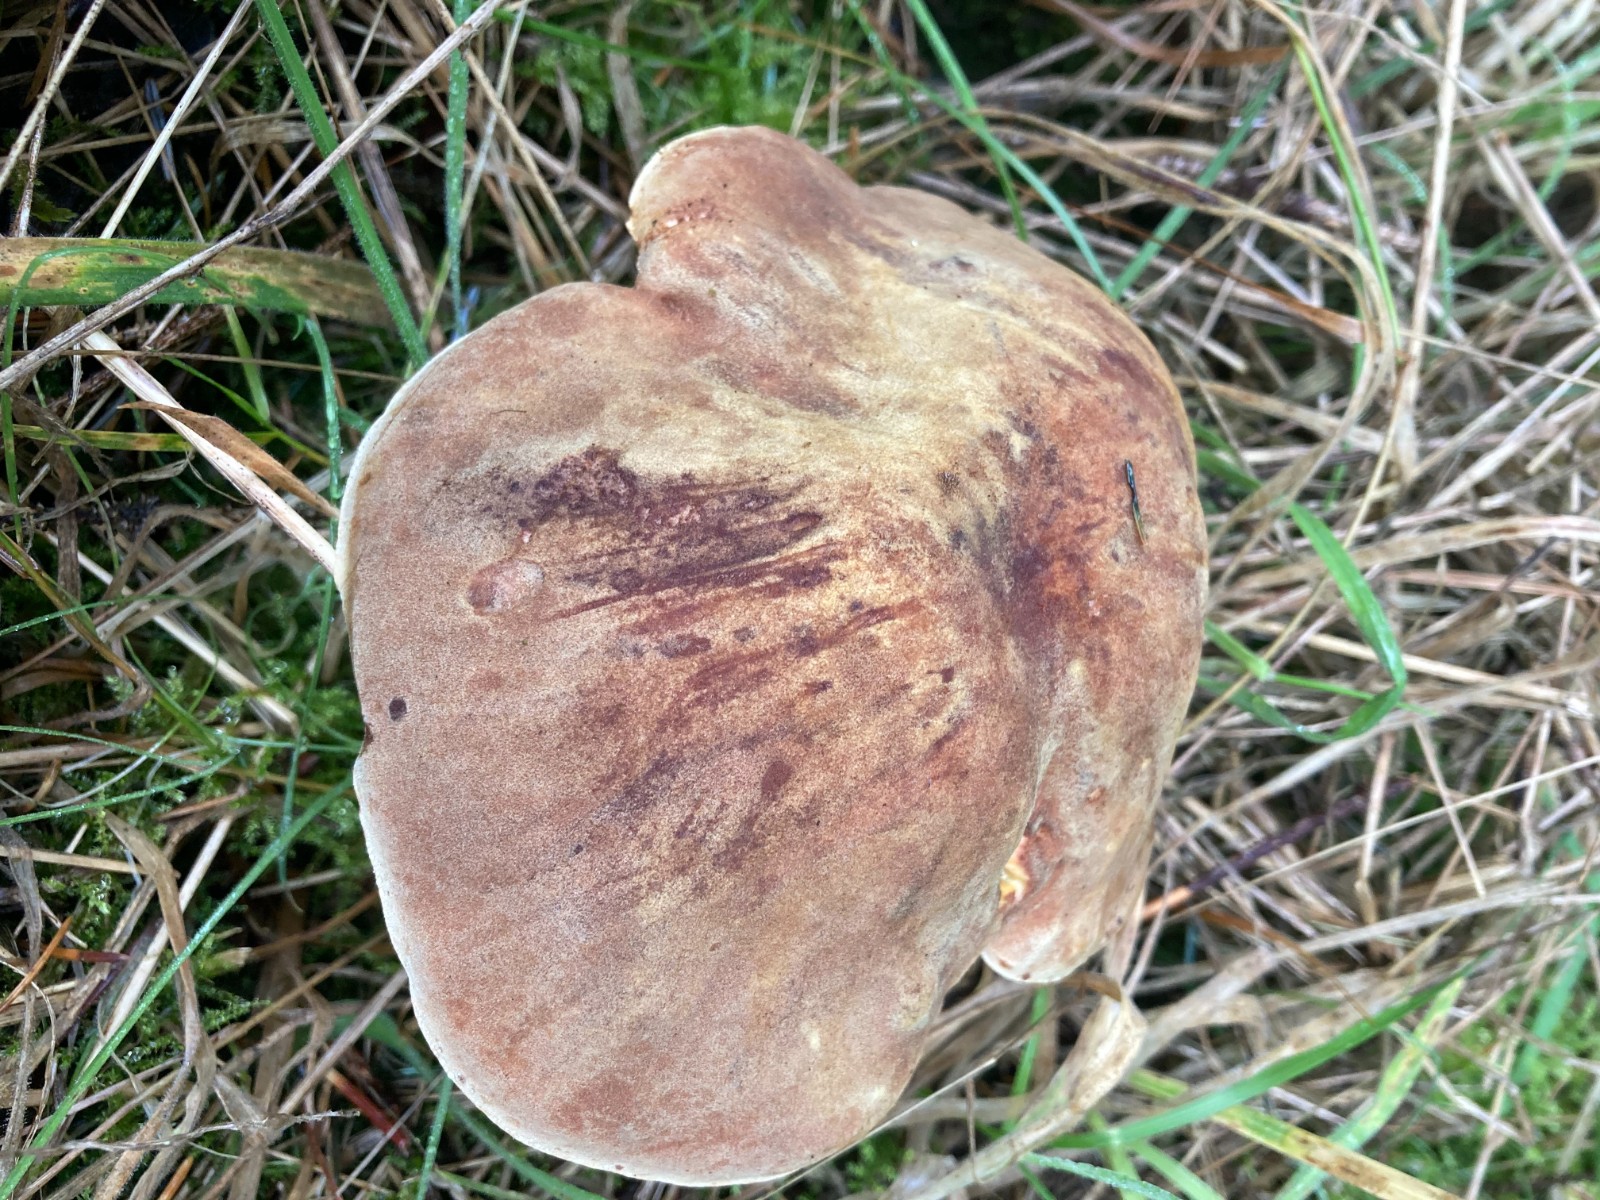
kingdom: Fungi
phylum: Basidiomycota
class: Agaricomycetes
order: Boletales
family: Boletaceae
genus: Xerocomus
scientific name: Xerocomus ferrugineus
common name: vaskeskinds-rørhat
